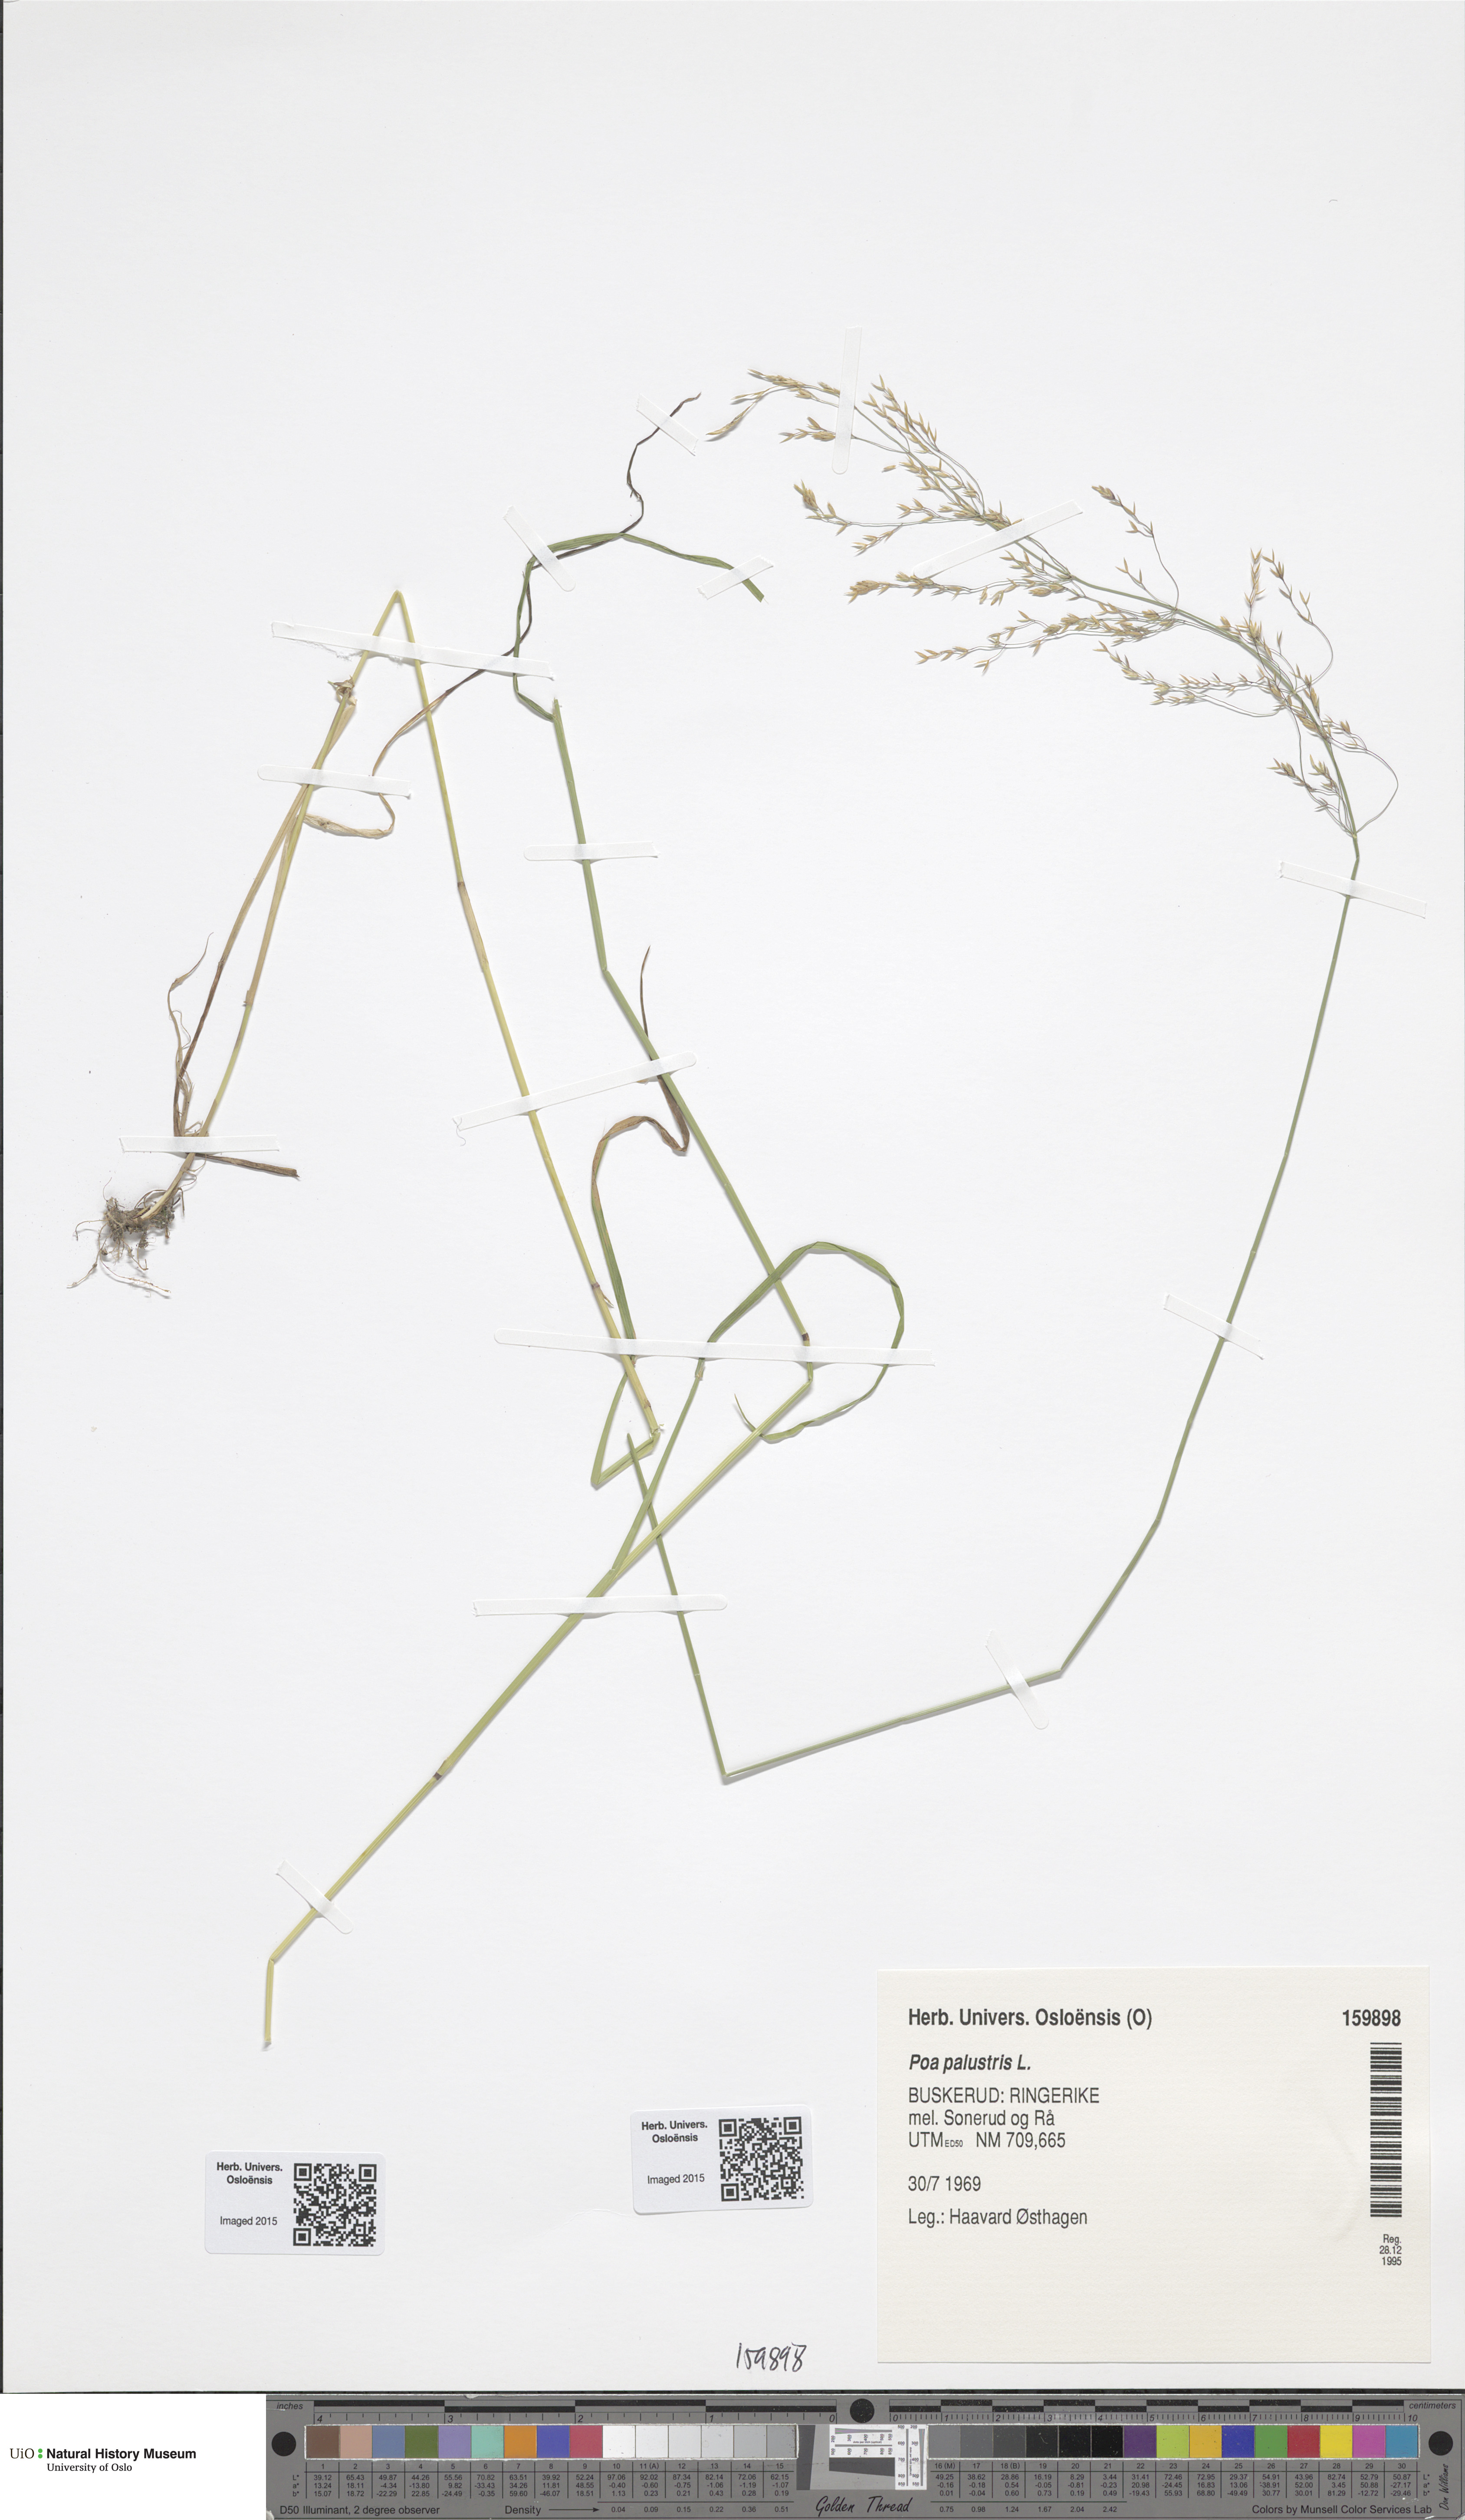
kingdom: Plantae
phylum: Tracheophyta
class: Liliopsida
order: Poales
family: Poaceae
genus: Poa
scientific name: Poa palustris
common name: Swamp meadow-grass
